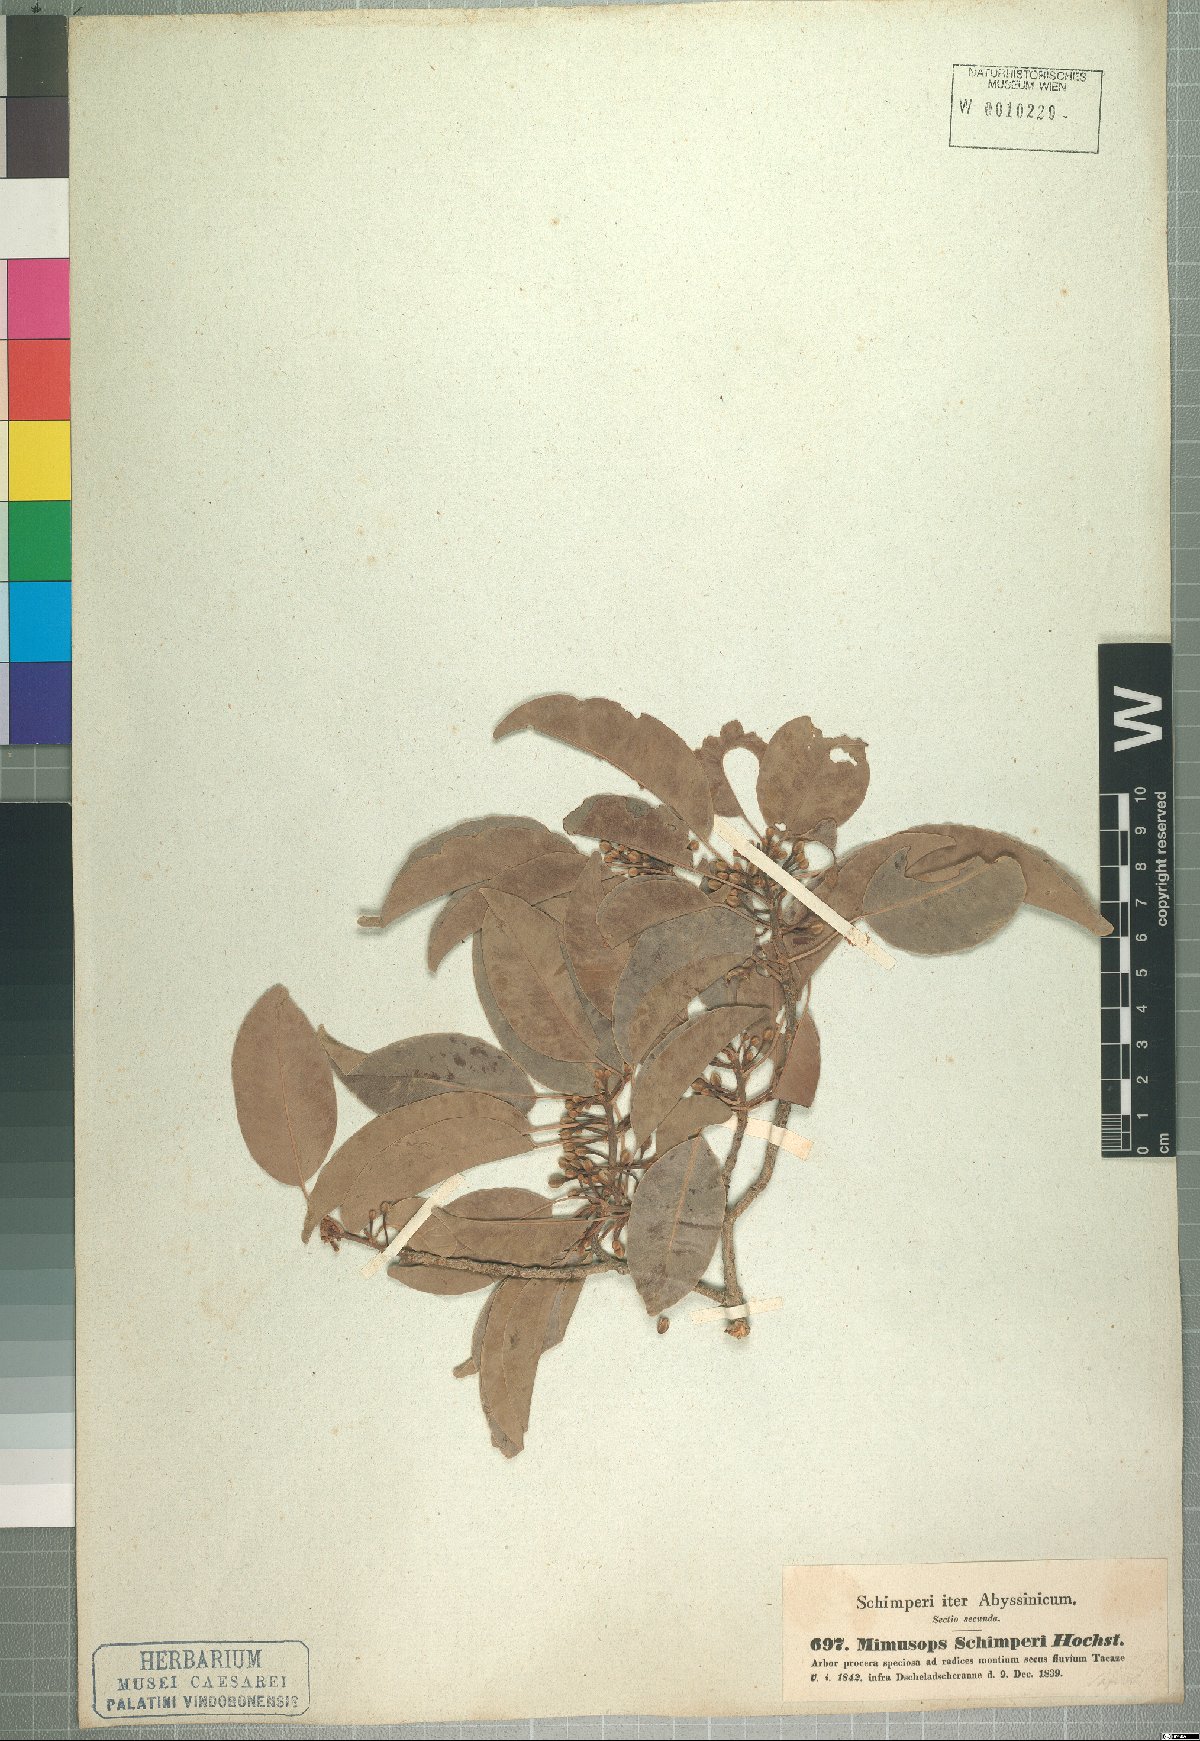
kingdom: Plantae
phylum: Tracheophyta
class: Magnoliopsida
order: Ericales
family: Sapotaceae
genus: Mimusops
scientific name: Mimusops laurifolia
